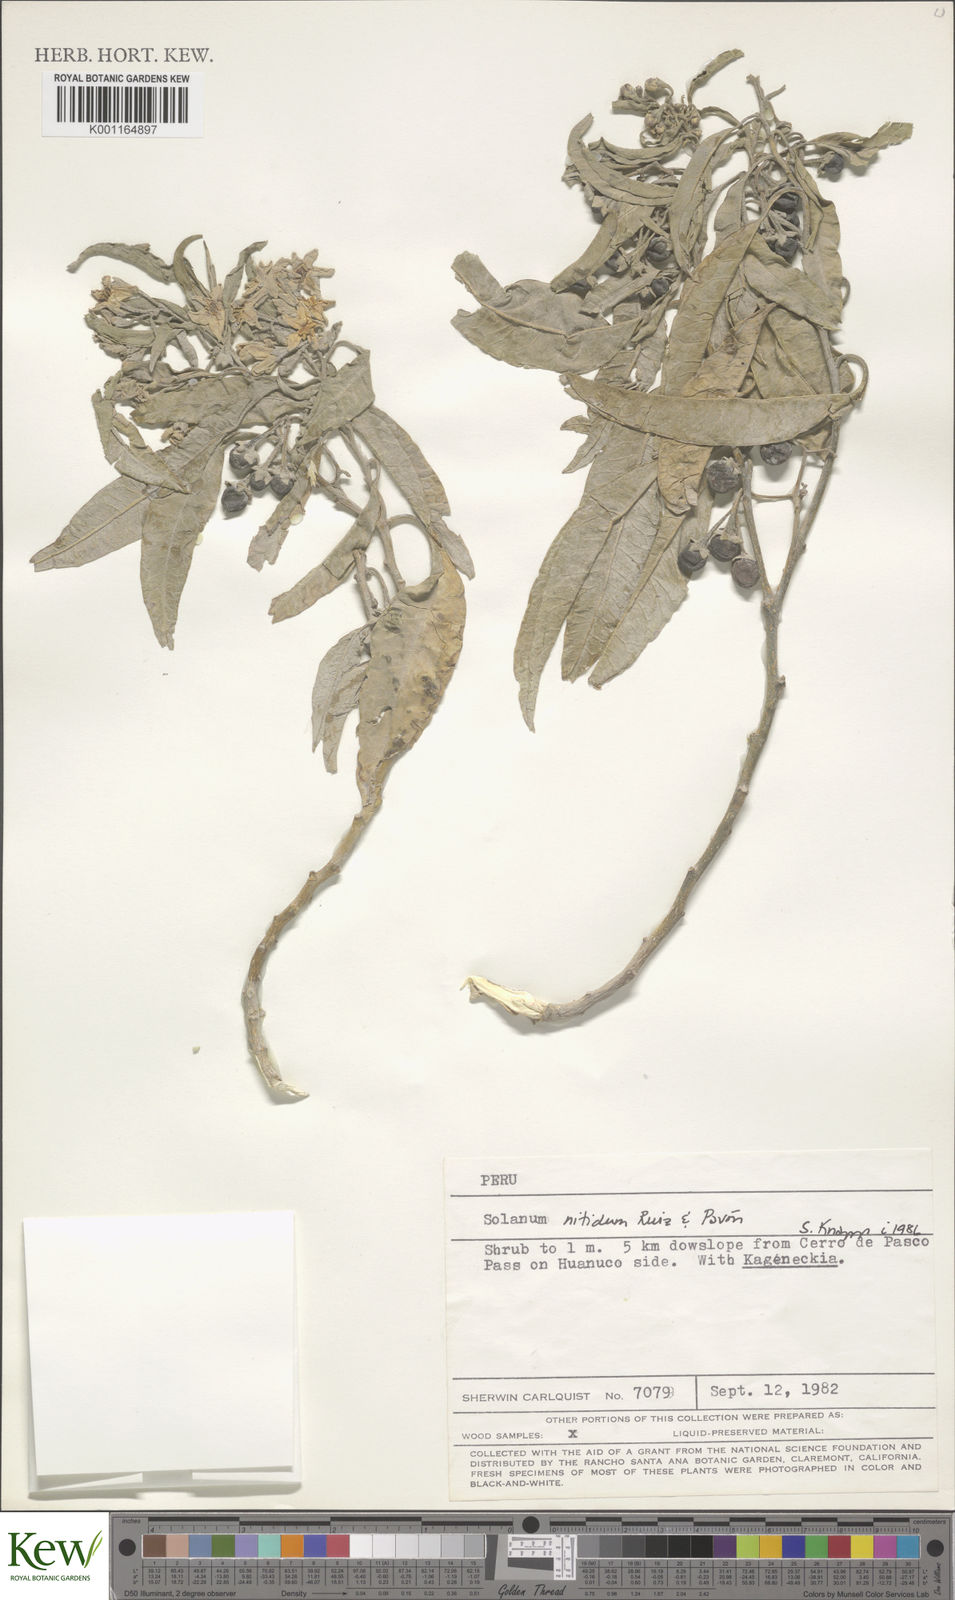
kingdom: Plantae
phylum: Tracheophyta
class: Magnoliopsida
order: Solanales
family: Solanaceae
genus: Solanum
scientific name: Solanum nitidum
